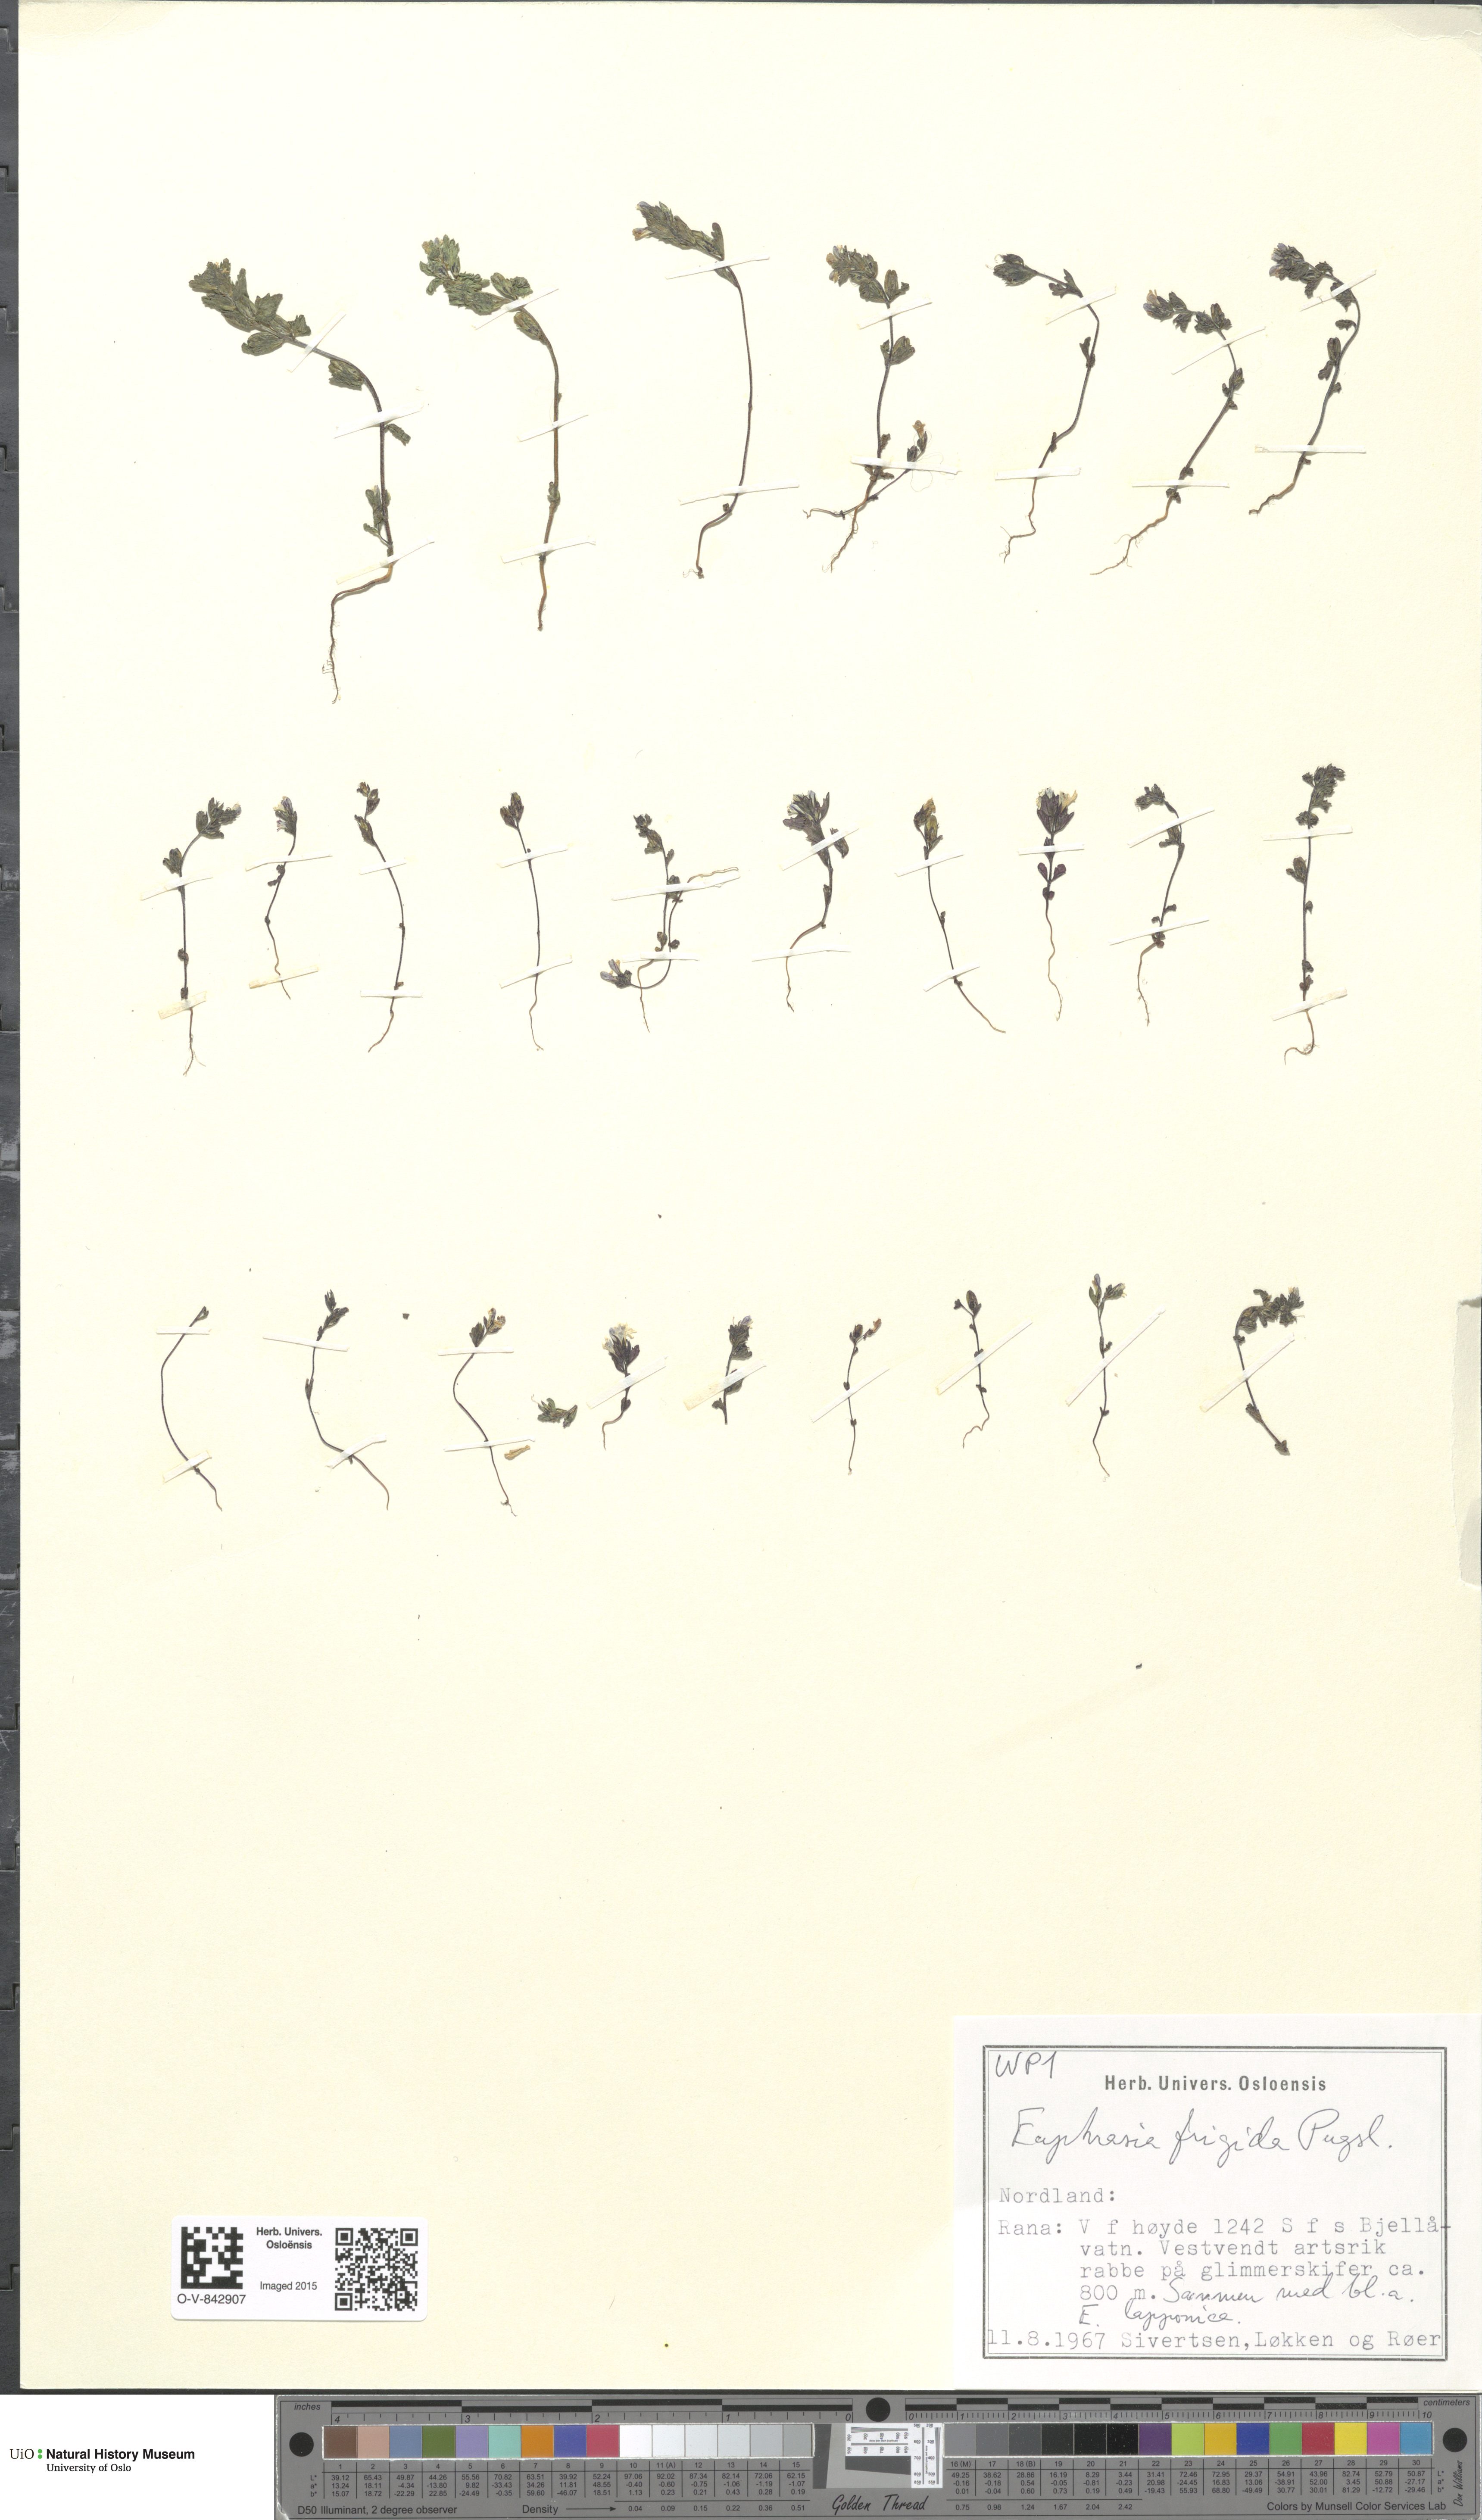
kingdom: Plantae
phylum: Tracheophyta
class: Magnoliopsida
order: Lamiales
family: Orobanchaceae
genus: Euphrasia
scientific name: Euphrasia wettsteinii
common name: Wettstein's eyebright
